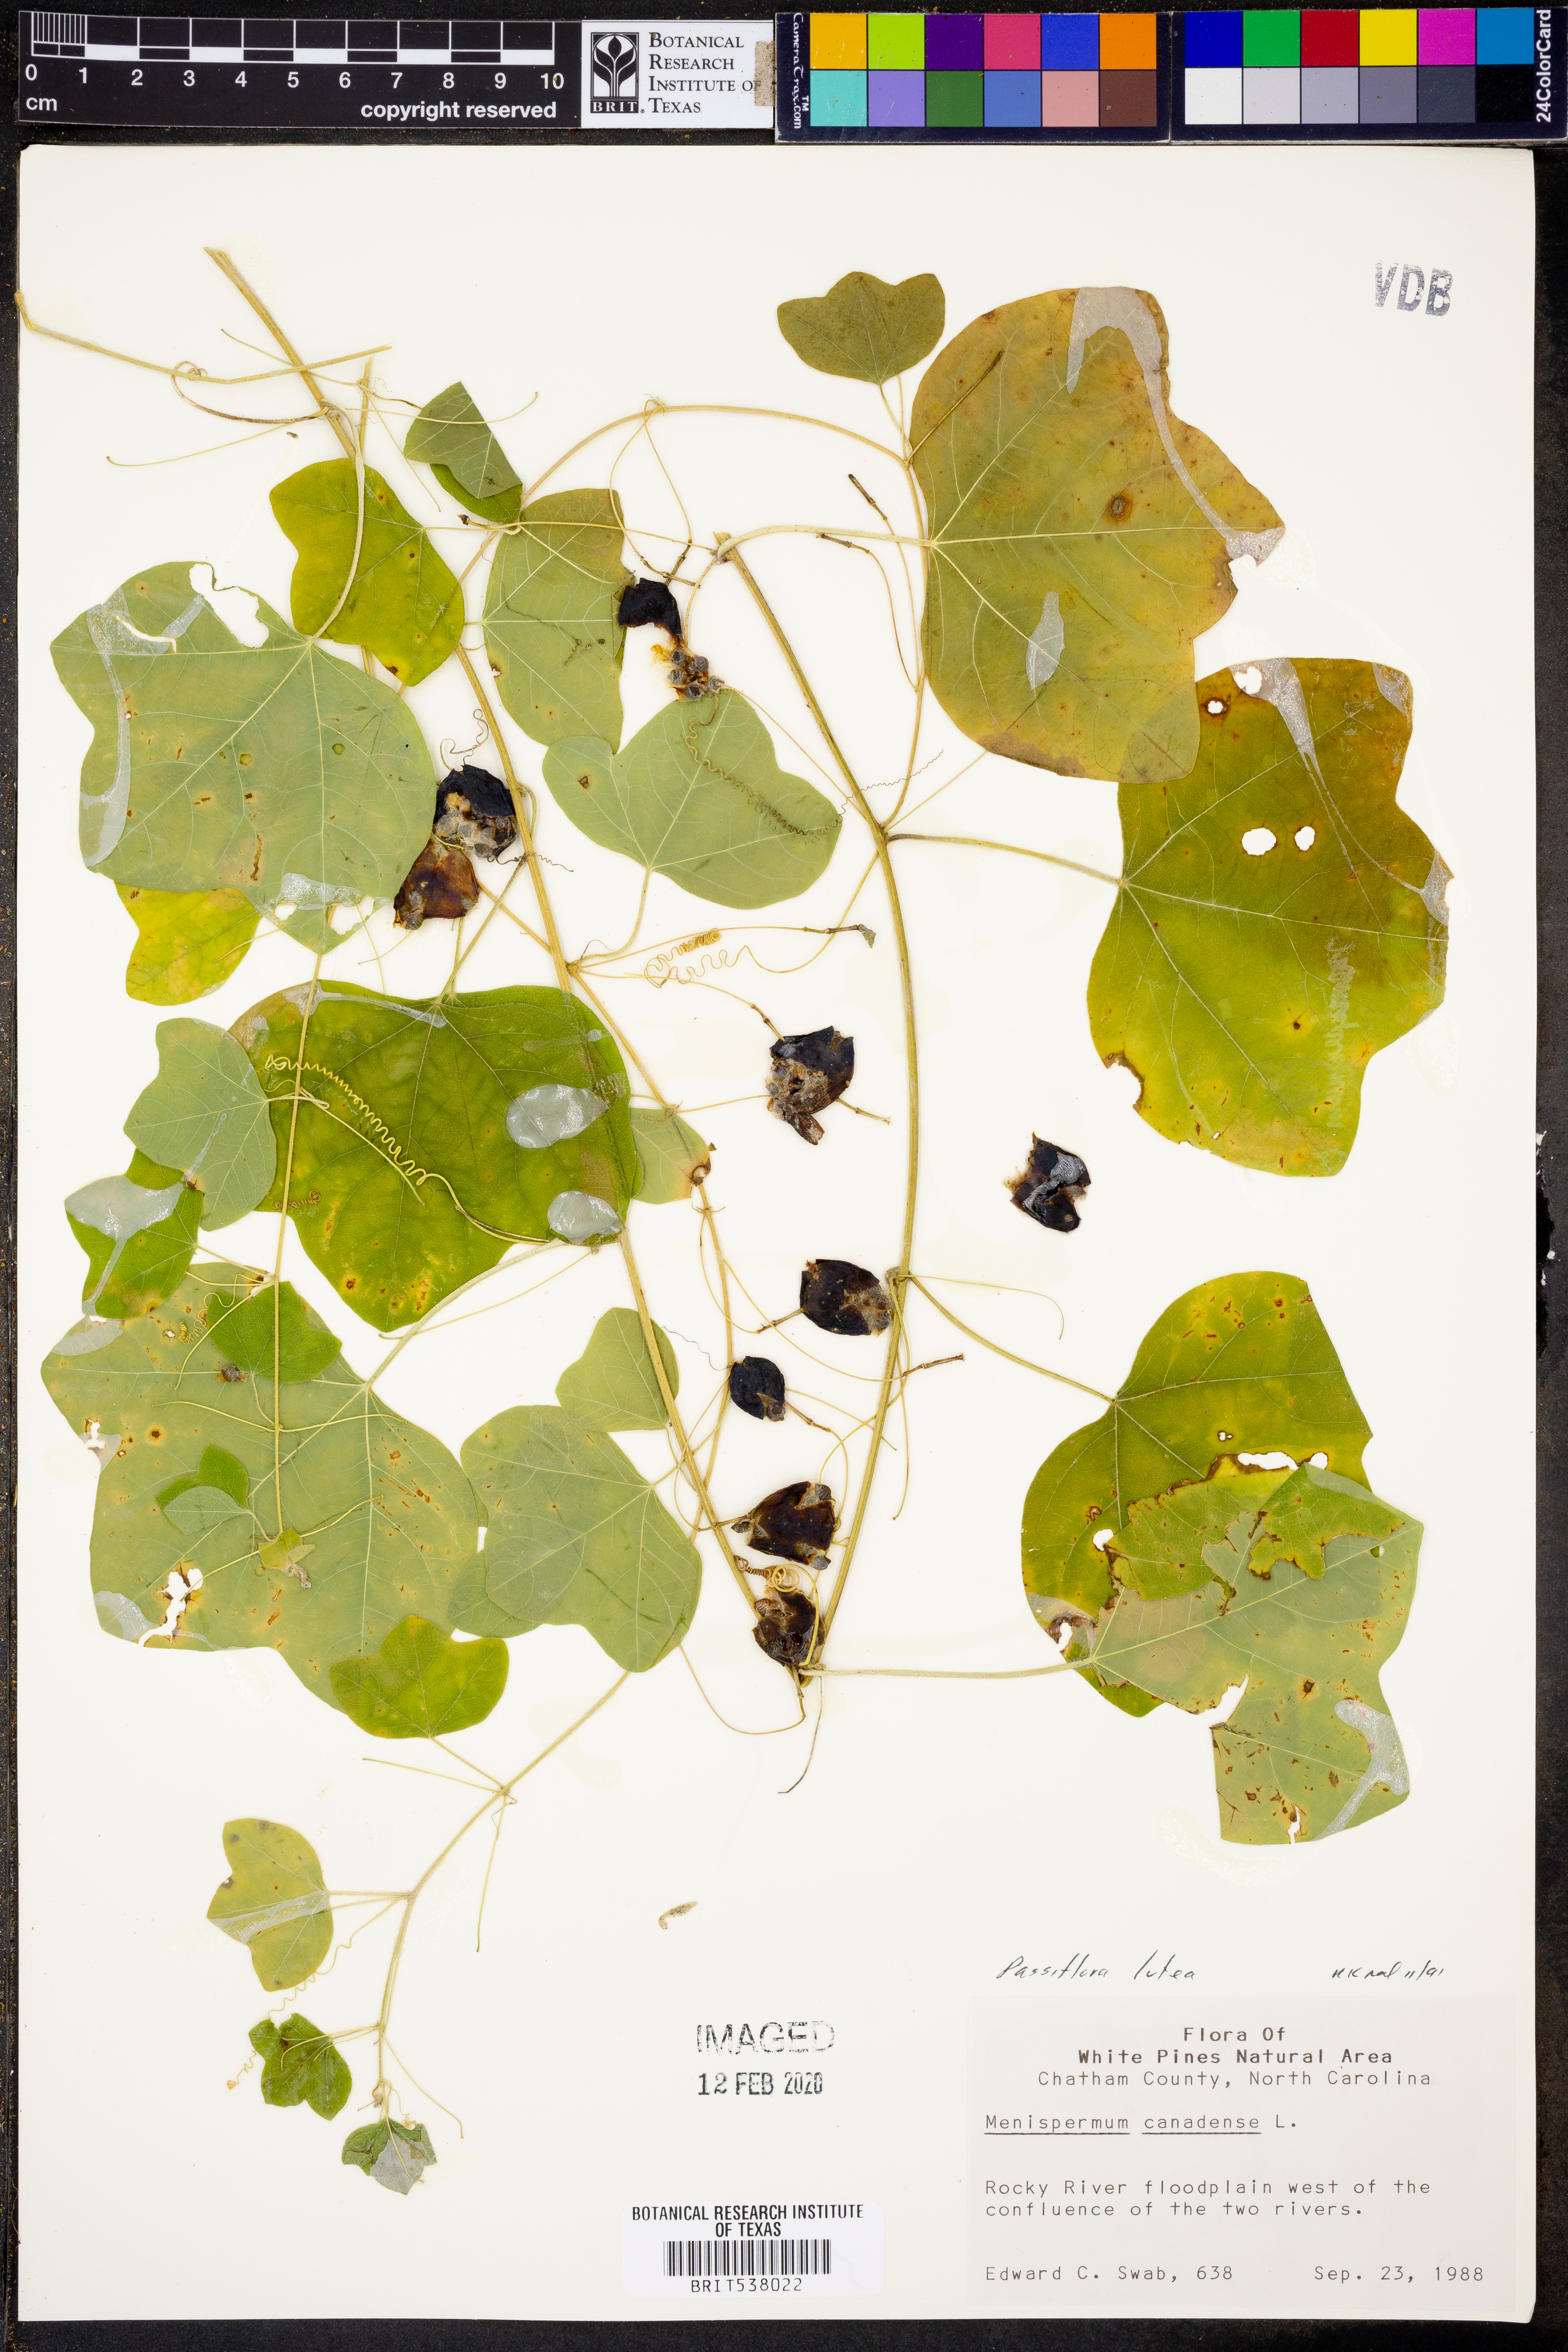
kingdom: Plantae
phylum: Tracheophyta
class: Magnoliopsida
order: Malpighiales
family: Passifloraceae
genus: Passiflora
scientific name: Passiflora lutea
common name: Yellow passionflower
